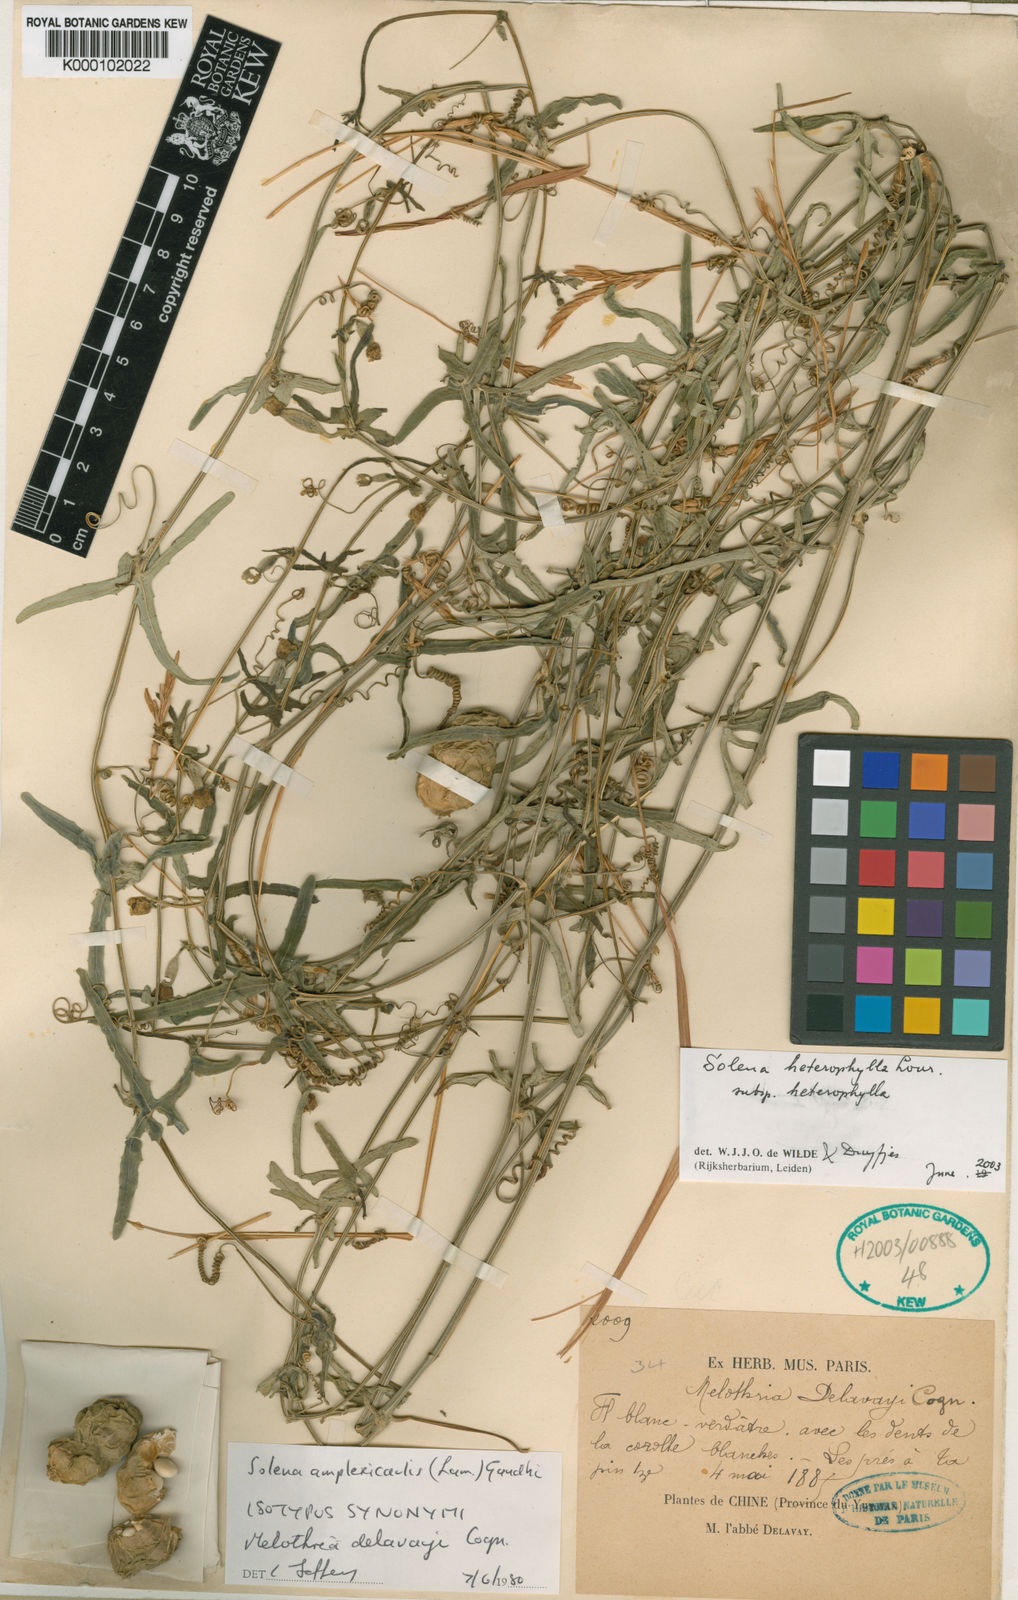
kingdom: Plantae
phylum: Tracheophyta
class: Magnoliopsida
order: Cucurbitales
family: Cucurbitaceae
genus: Solena
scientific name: Solena
